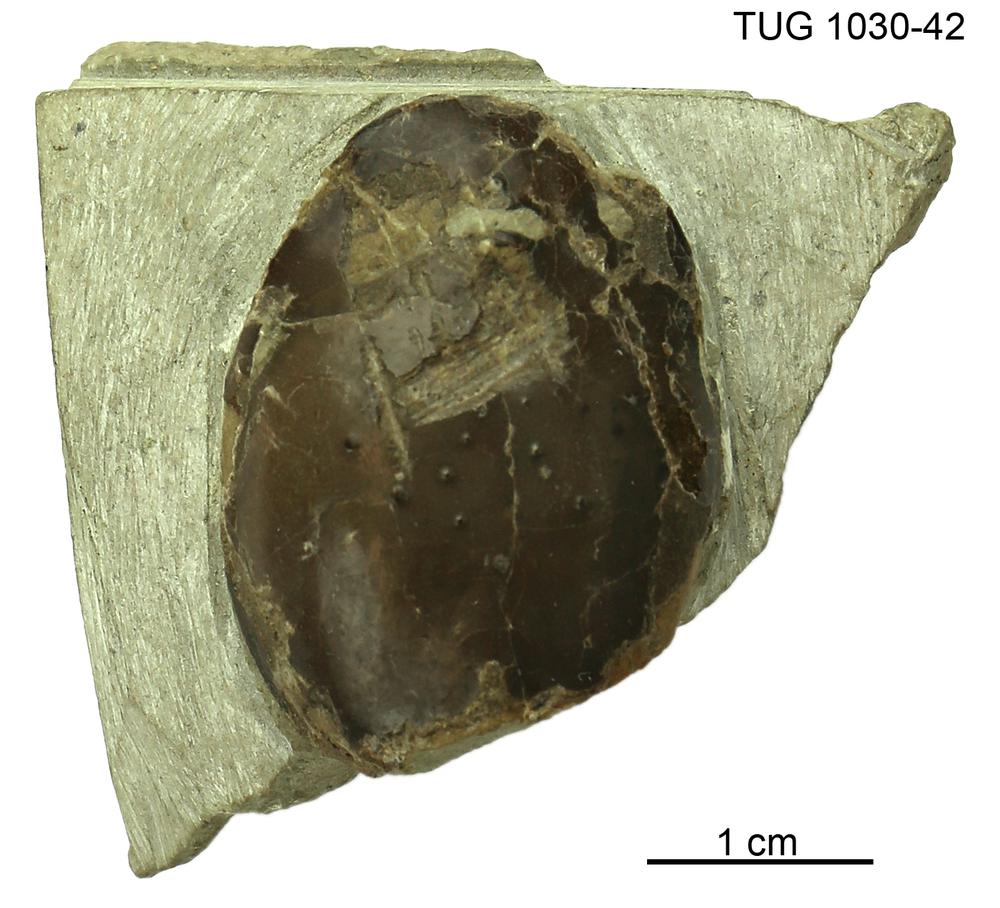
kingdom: Animalia
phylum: Chordata
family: Tremataspididae
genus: Tremataspis
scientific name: Tremataspis
